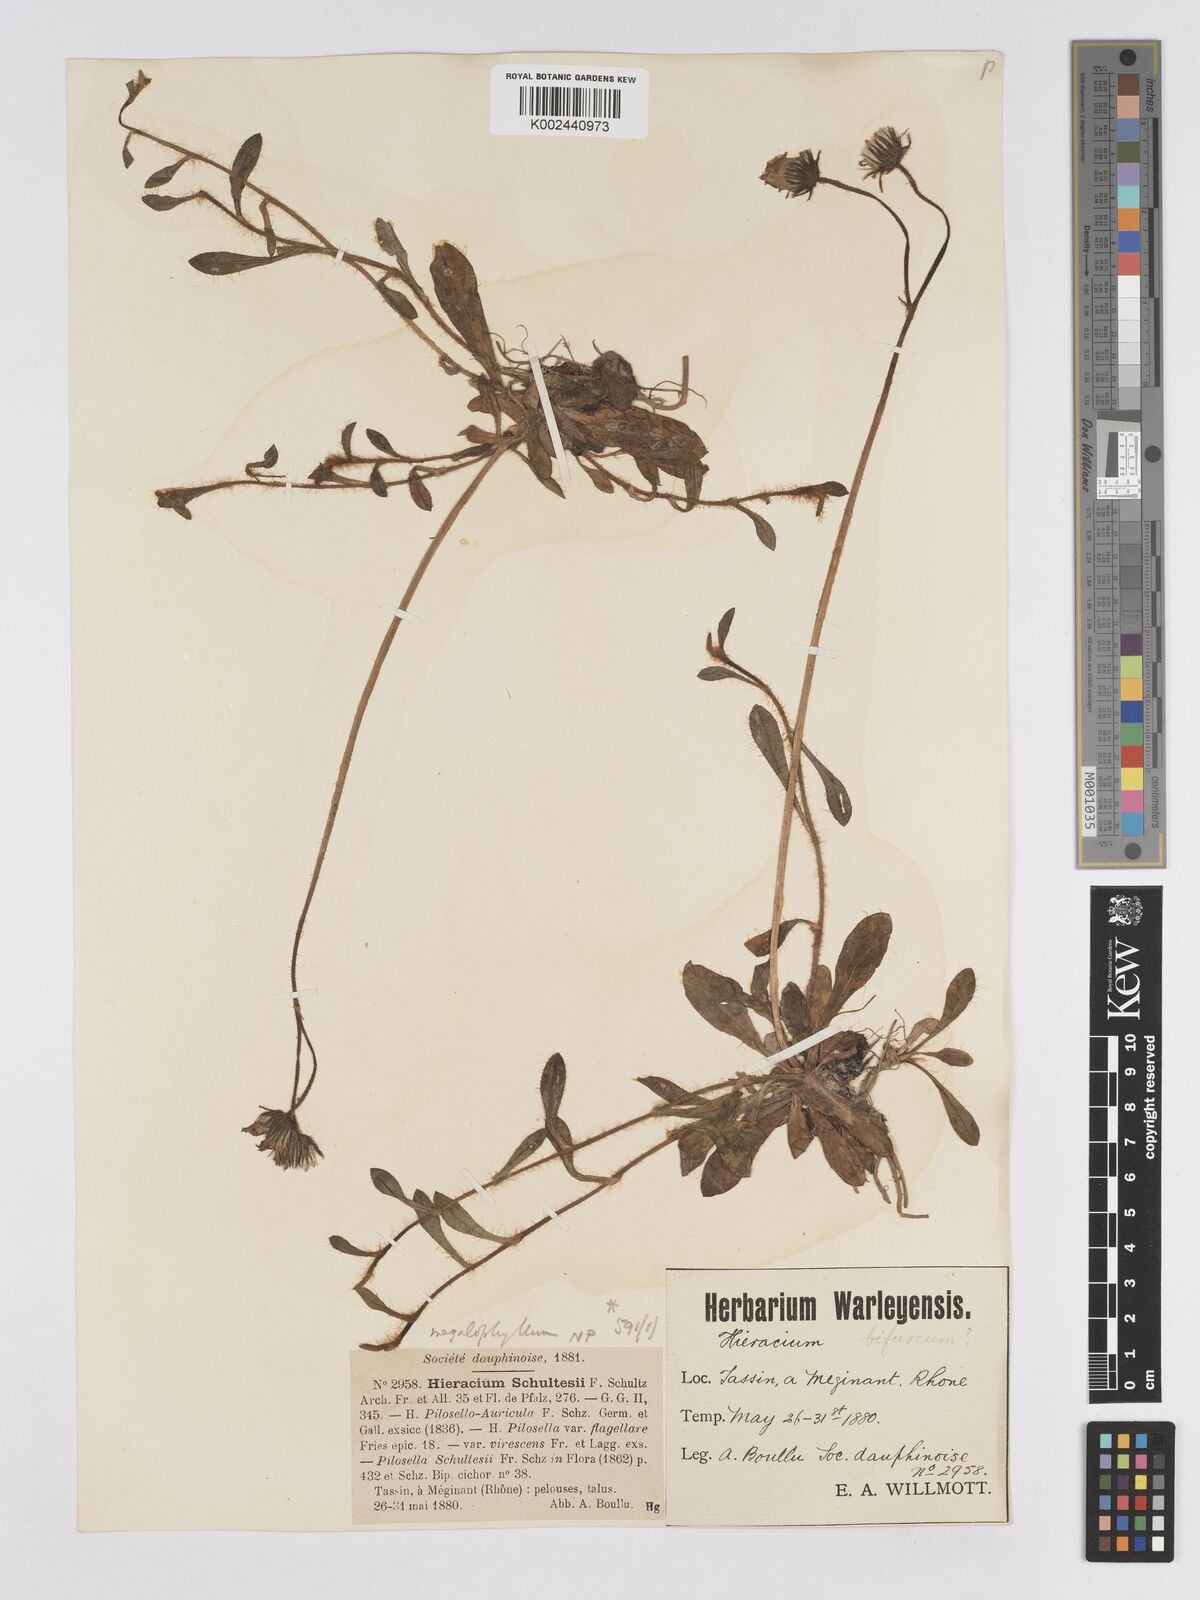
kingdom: Plantae
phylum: Tracheophyta
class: Magnoliopsida
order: Asterales
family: Asteraceae
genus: Pilosella
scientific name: Pilosella schultesii
